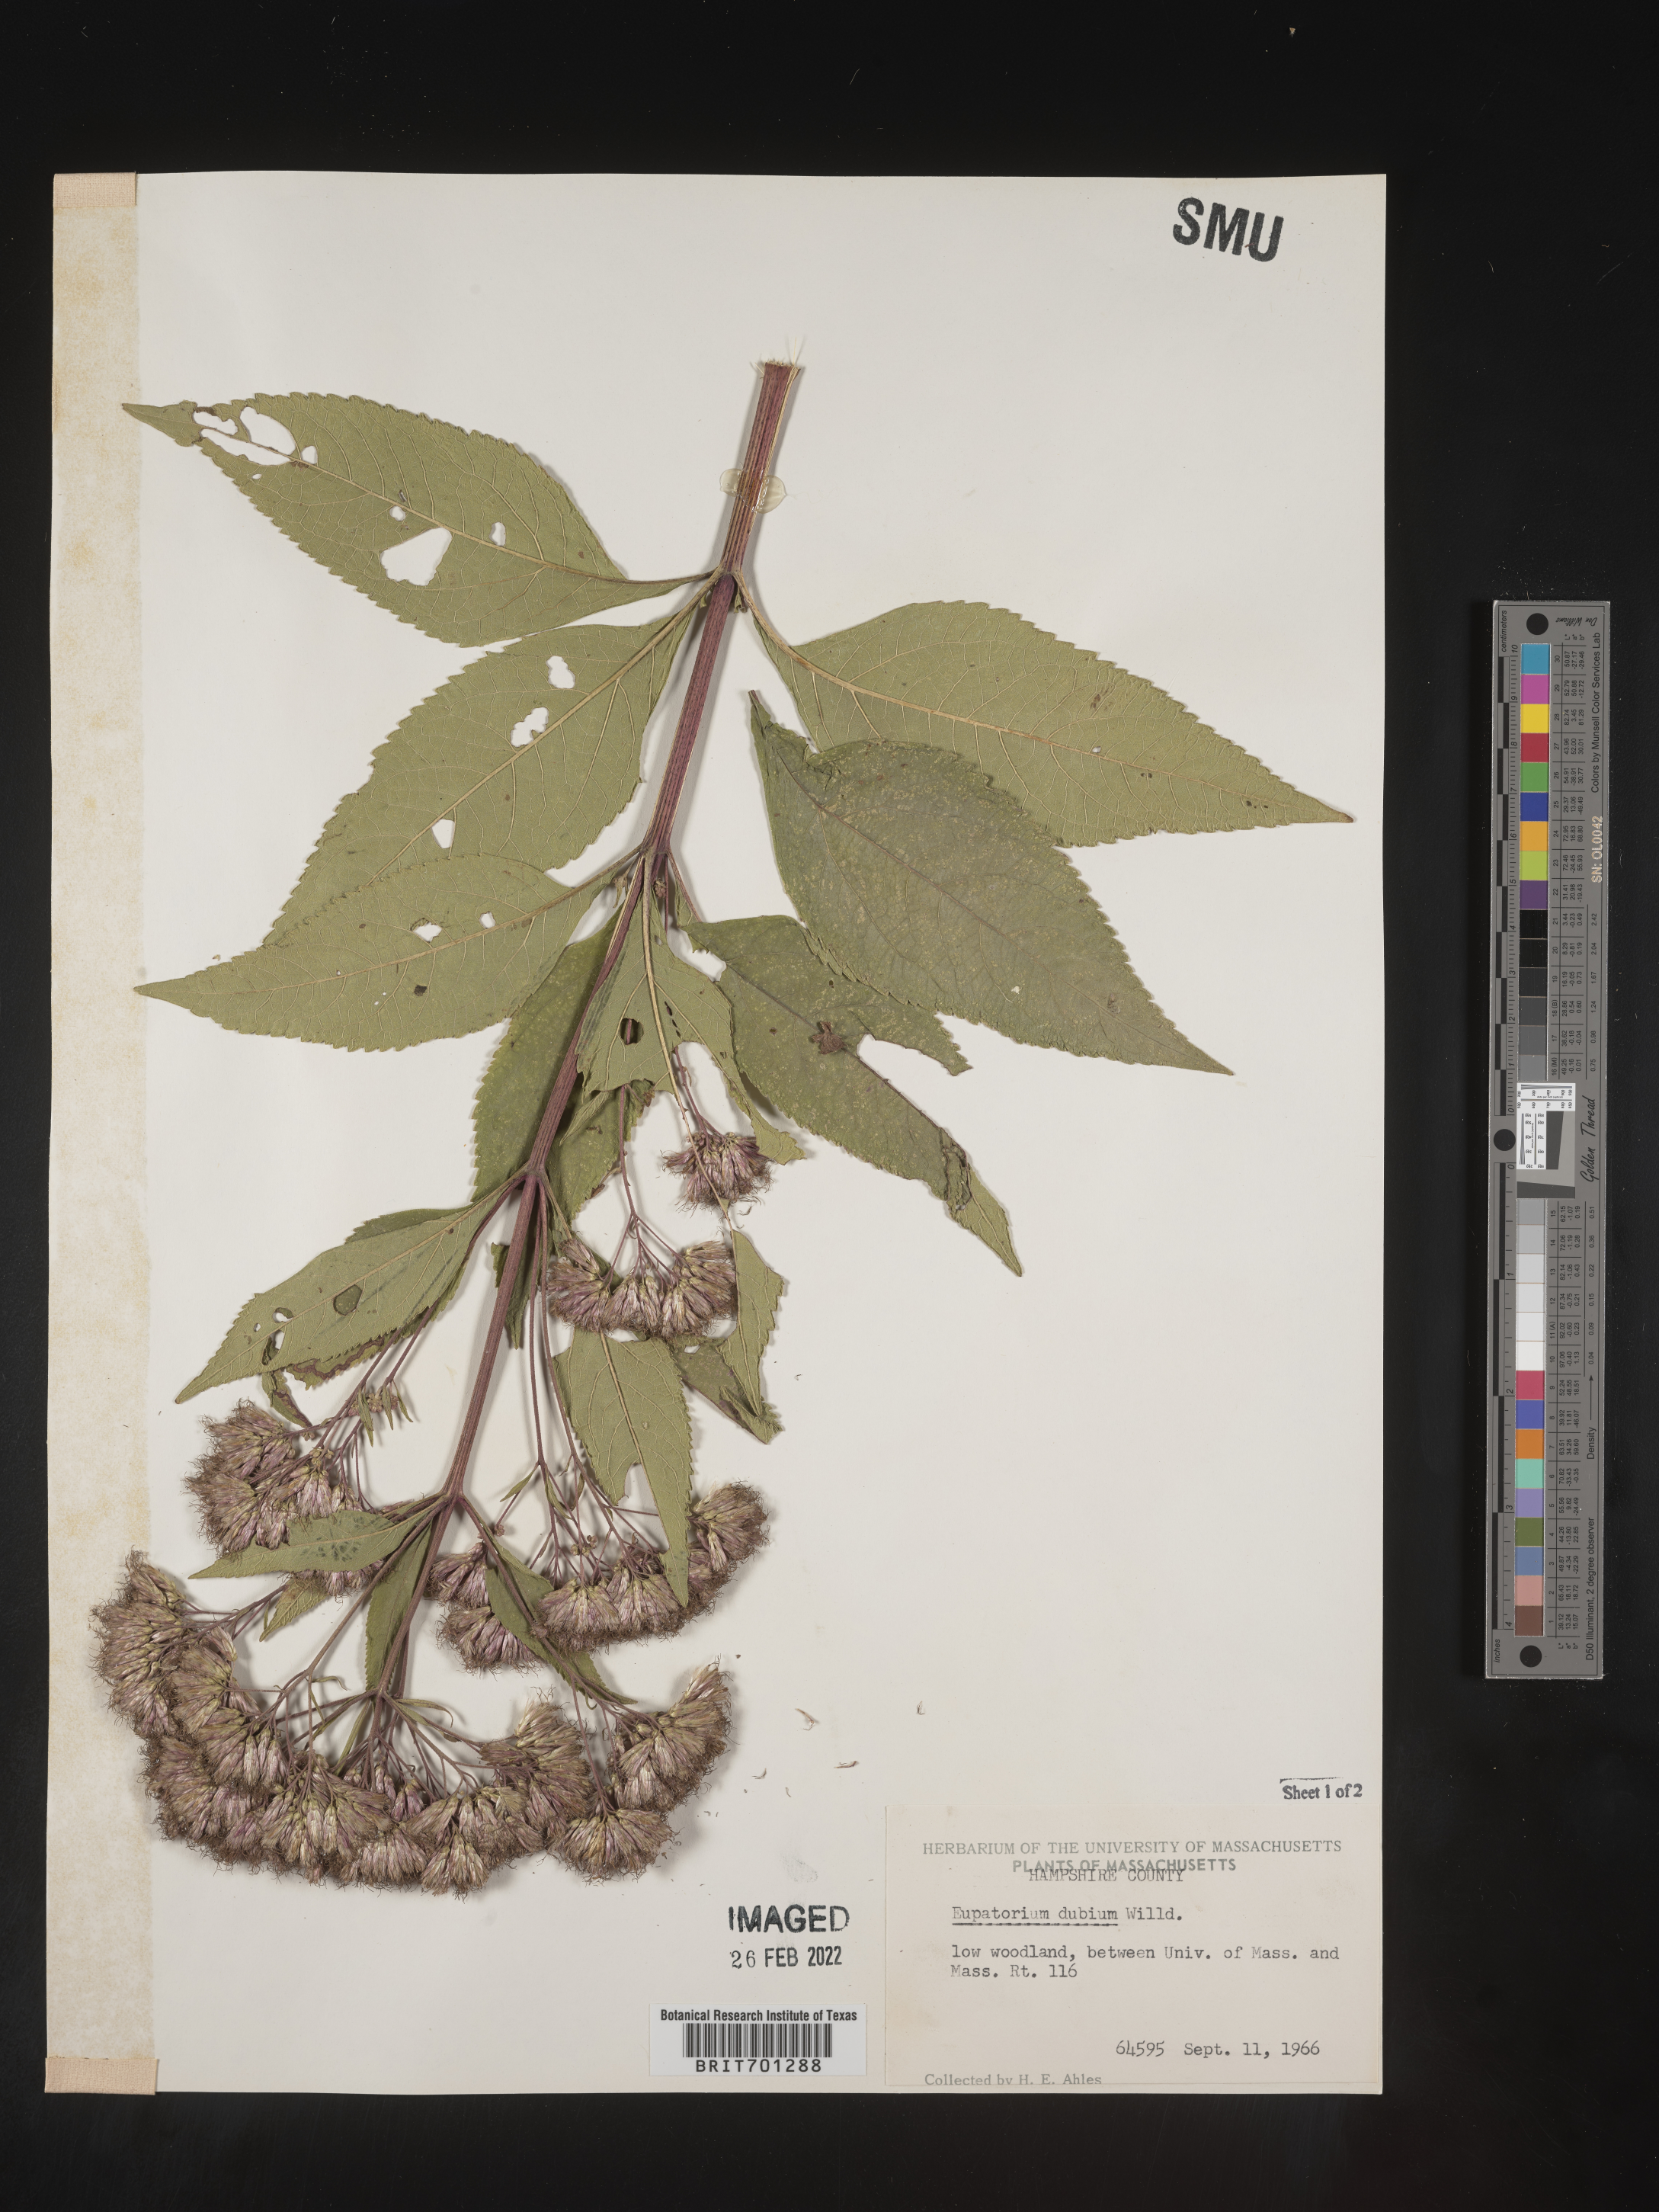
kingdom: Plantae
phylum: Tracheophyta
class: Magnoliopsida
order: Asterales
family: Asteraceae
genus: Eutrochium
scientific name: Eutrochium dubium
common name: Coastal plain joe pye weed
